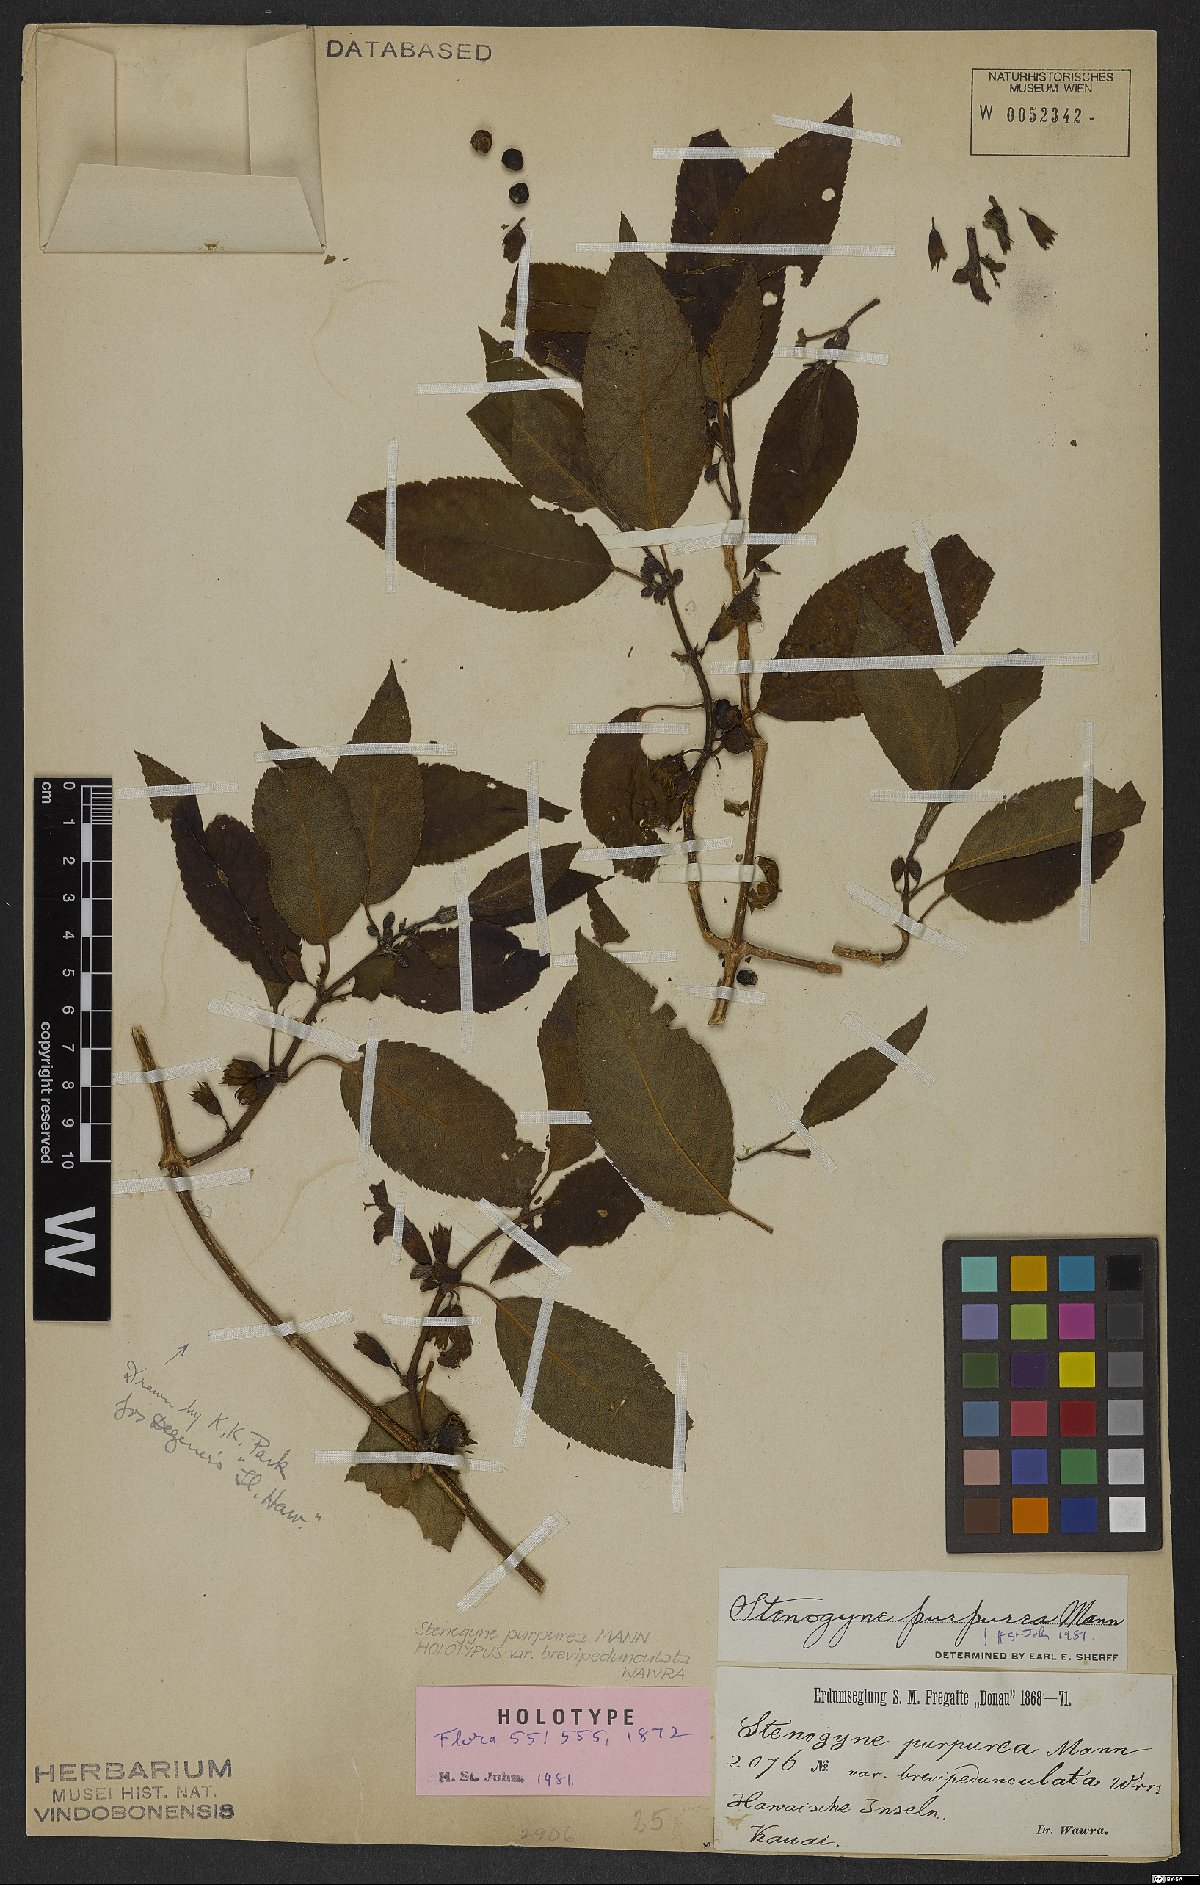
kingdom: Plantae
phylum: Tracheophyta
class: Magnoliopsida
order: Lamiales
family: Lamiaceae
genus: Stenogyne
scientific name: Stenogyne purpurea
